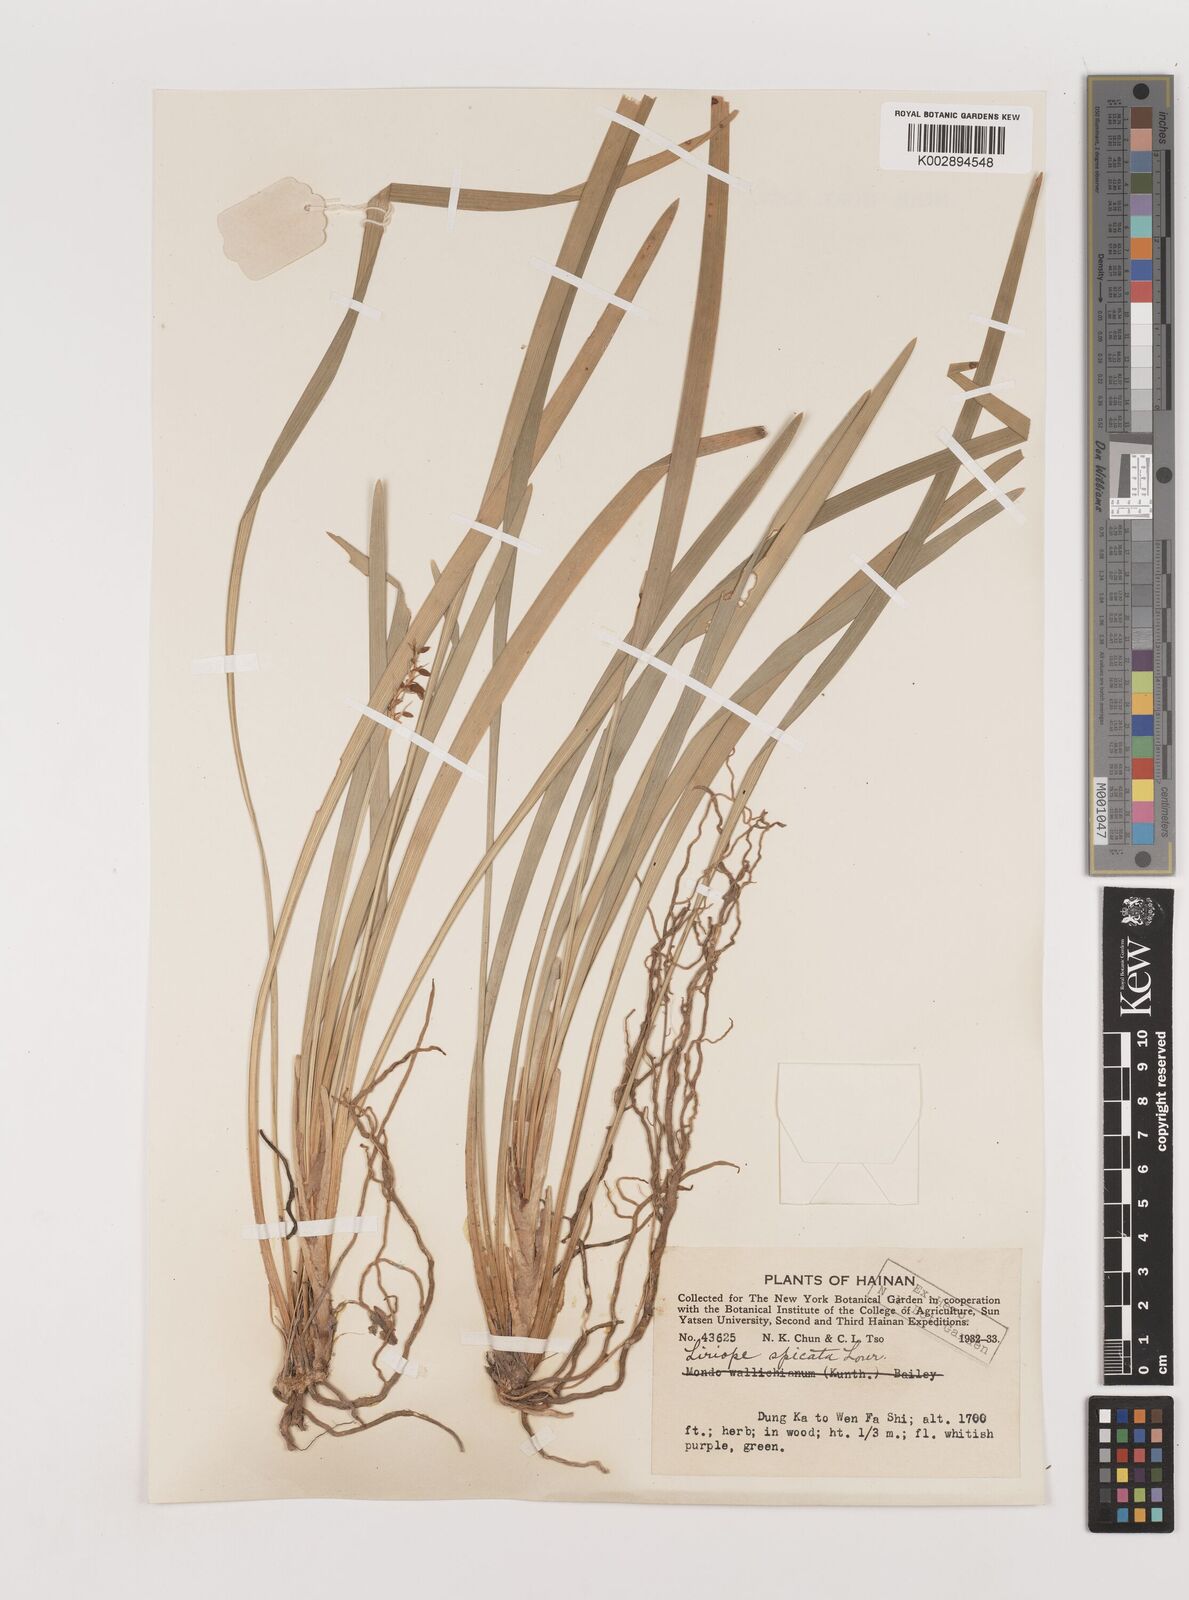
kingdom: Plantae
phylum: Tracheophyta
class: Liliopsida
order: Asparagales
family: Asparagaceae
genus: Liriope
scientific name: Liriope spicata
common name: Creeping liriope
